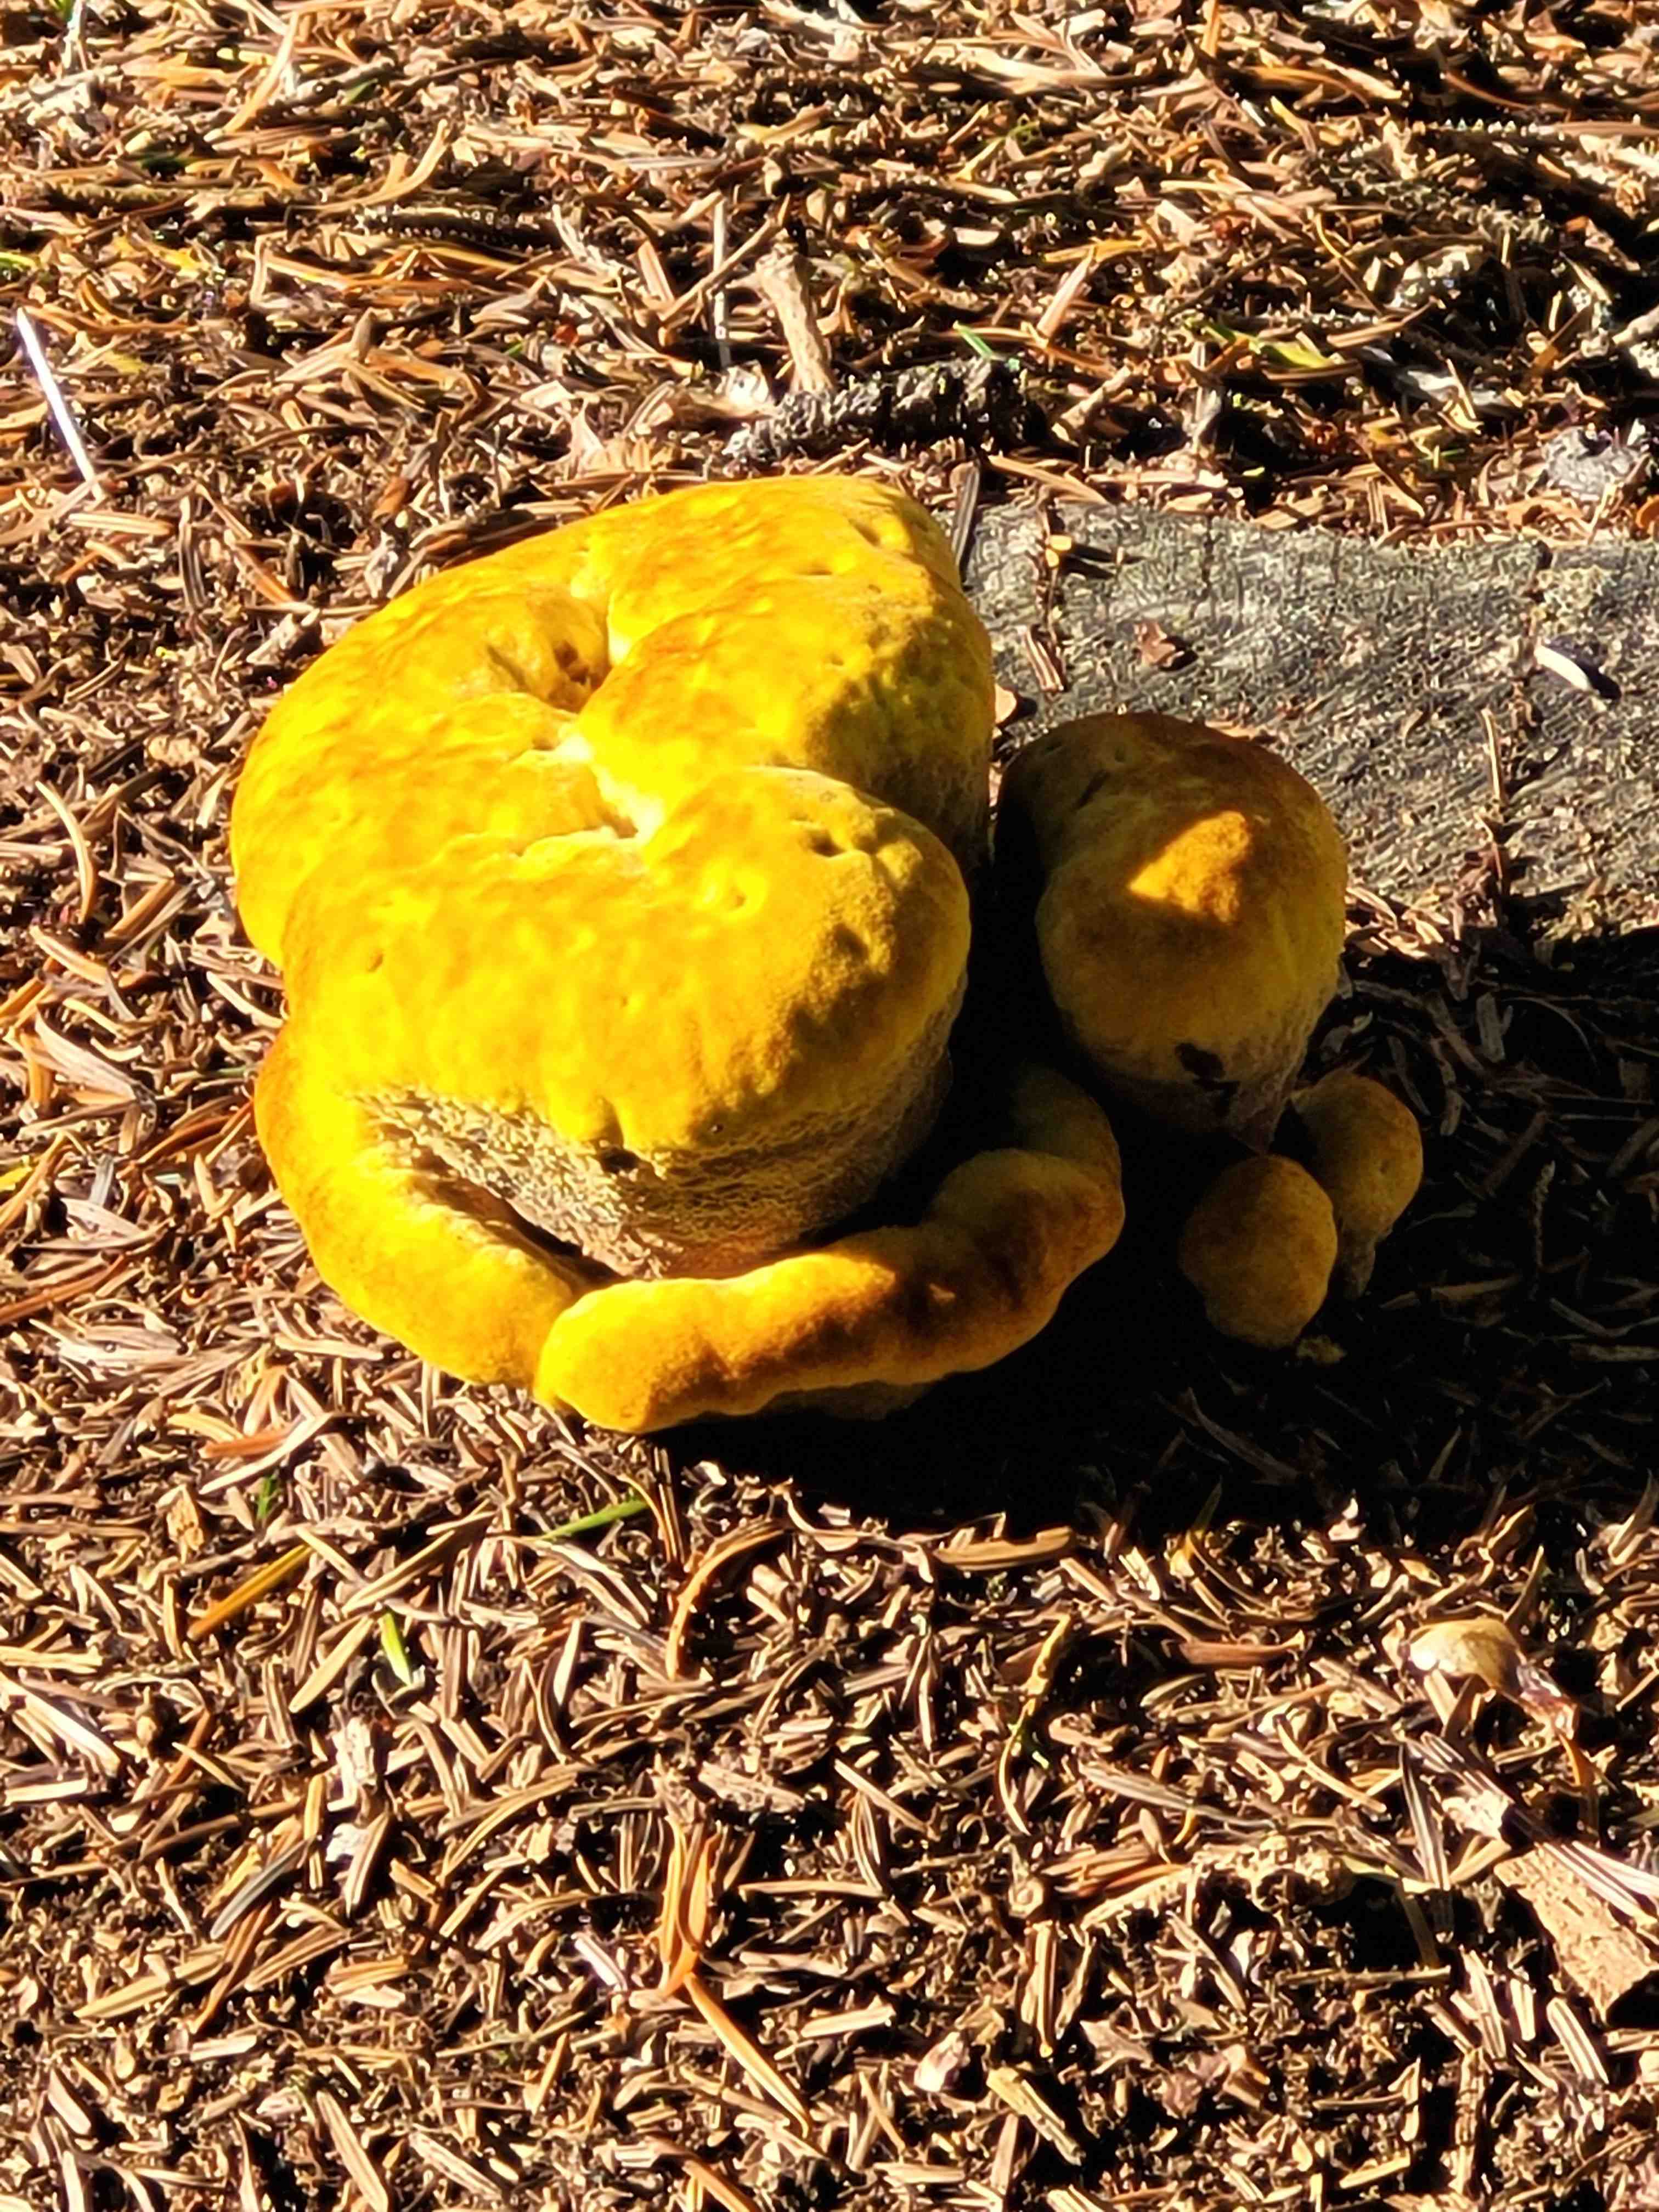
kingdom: Fungi
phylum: Basidiomycota
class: Agaricomycetes
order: Polyporales
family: Laetiporaceae
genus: Phaeolus
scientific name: Phaeolus schweinitzii
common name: brunporesvamp
